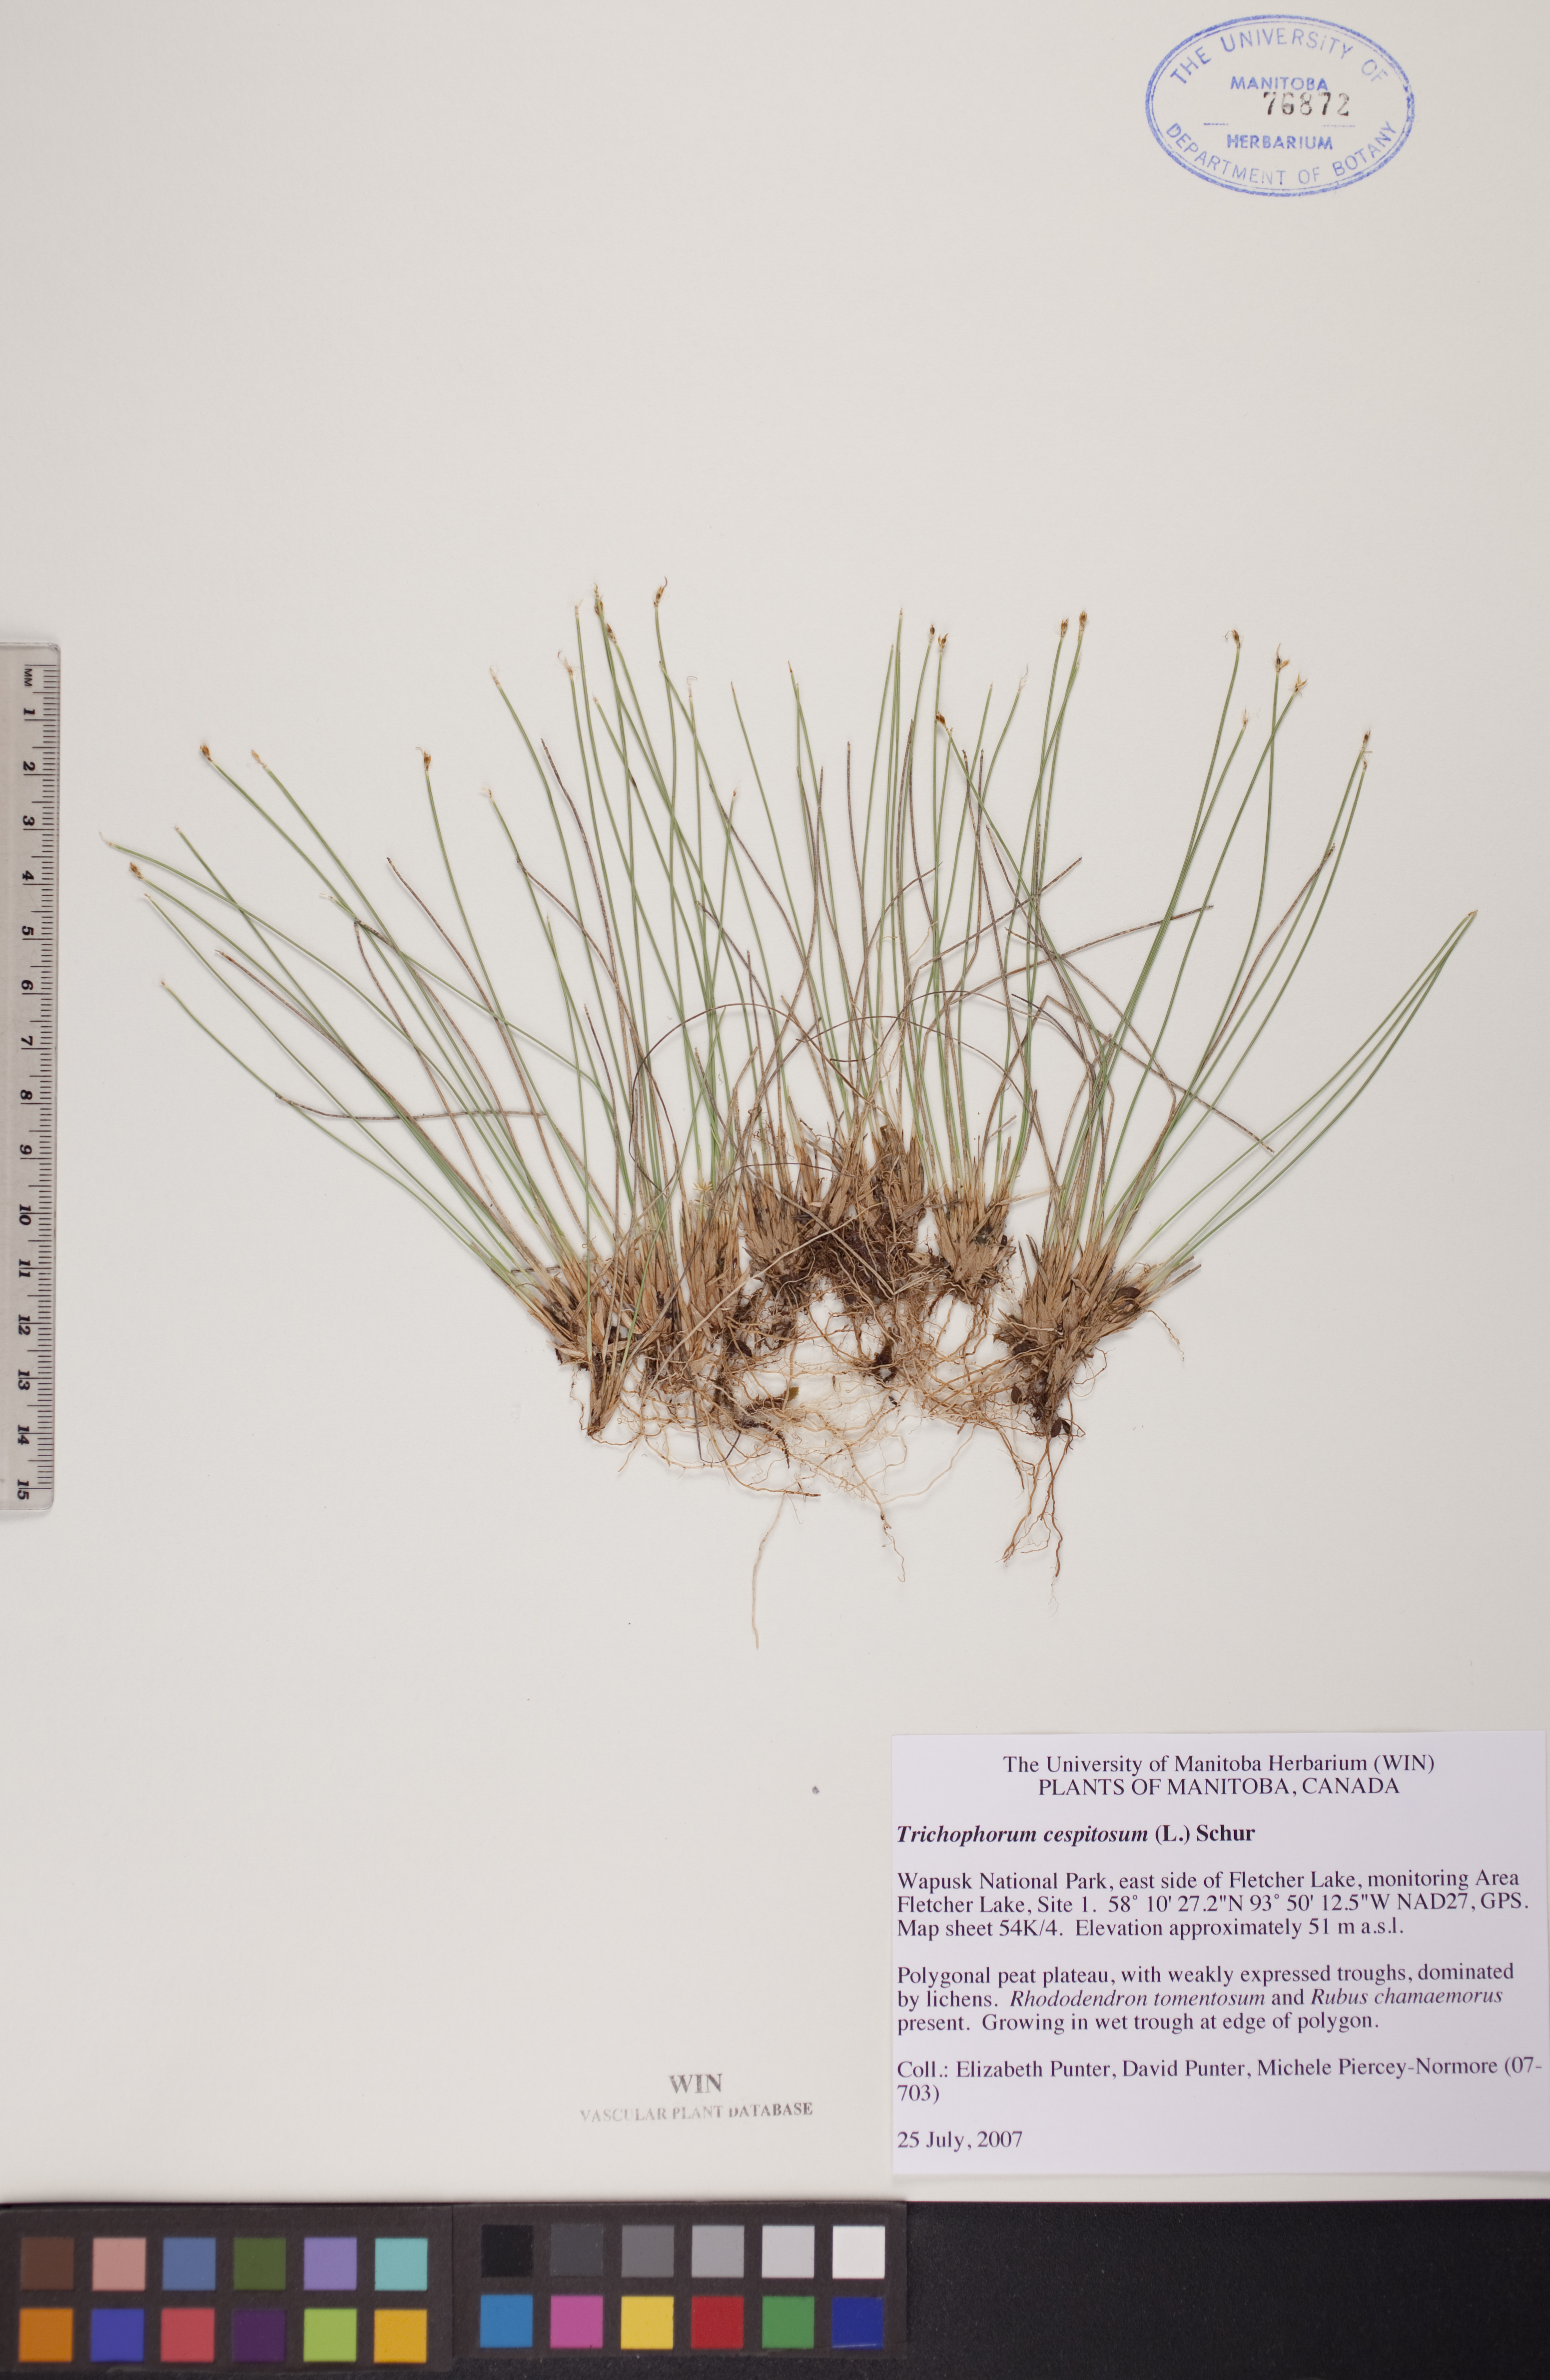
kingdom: Plantae
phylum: Tracheophyta
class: Liliopsida
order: Poales
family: Cyperaceae
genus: Trichophorum
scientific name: Trichophorum cespitosum
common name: Cespitose bulrush
